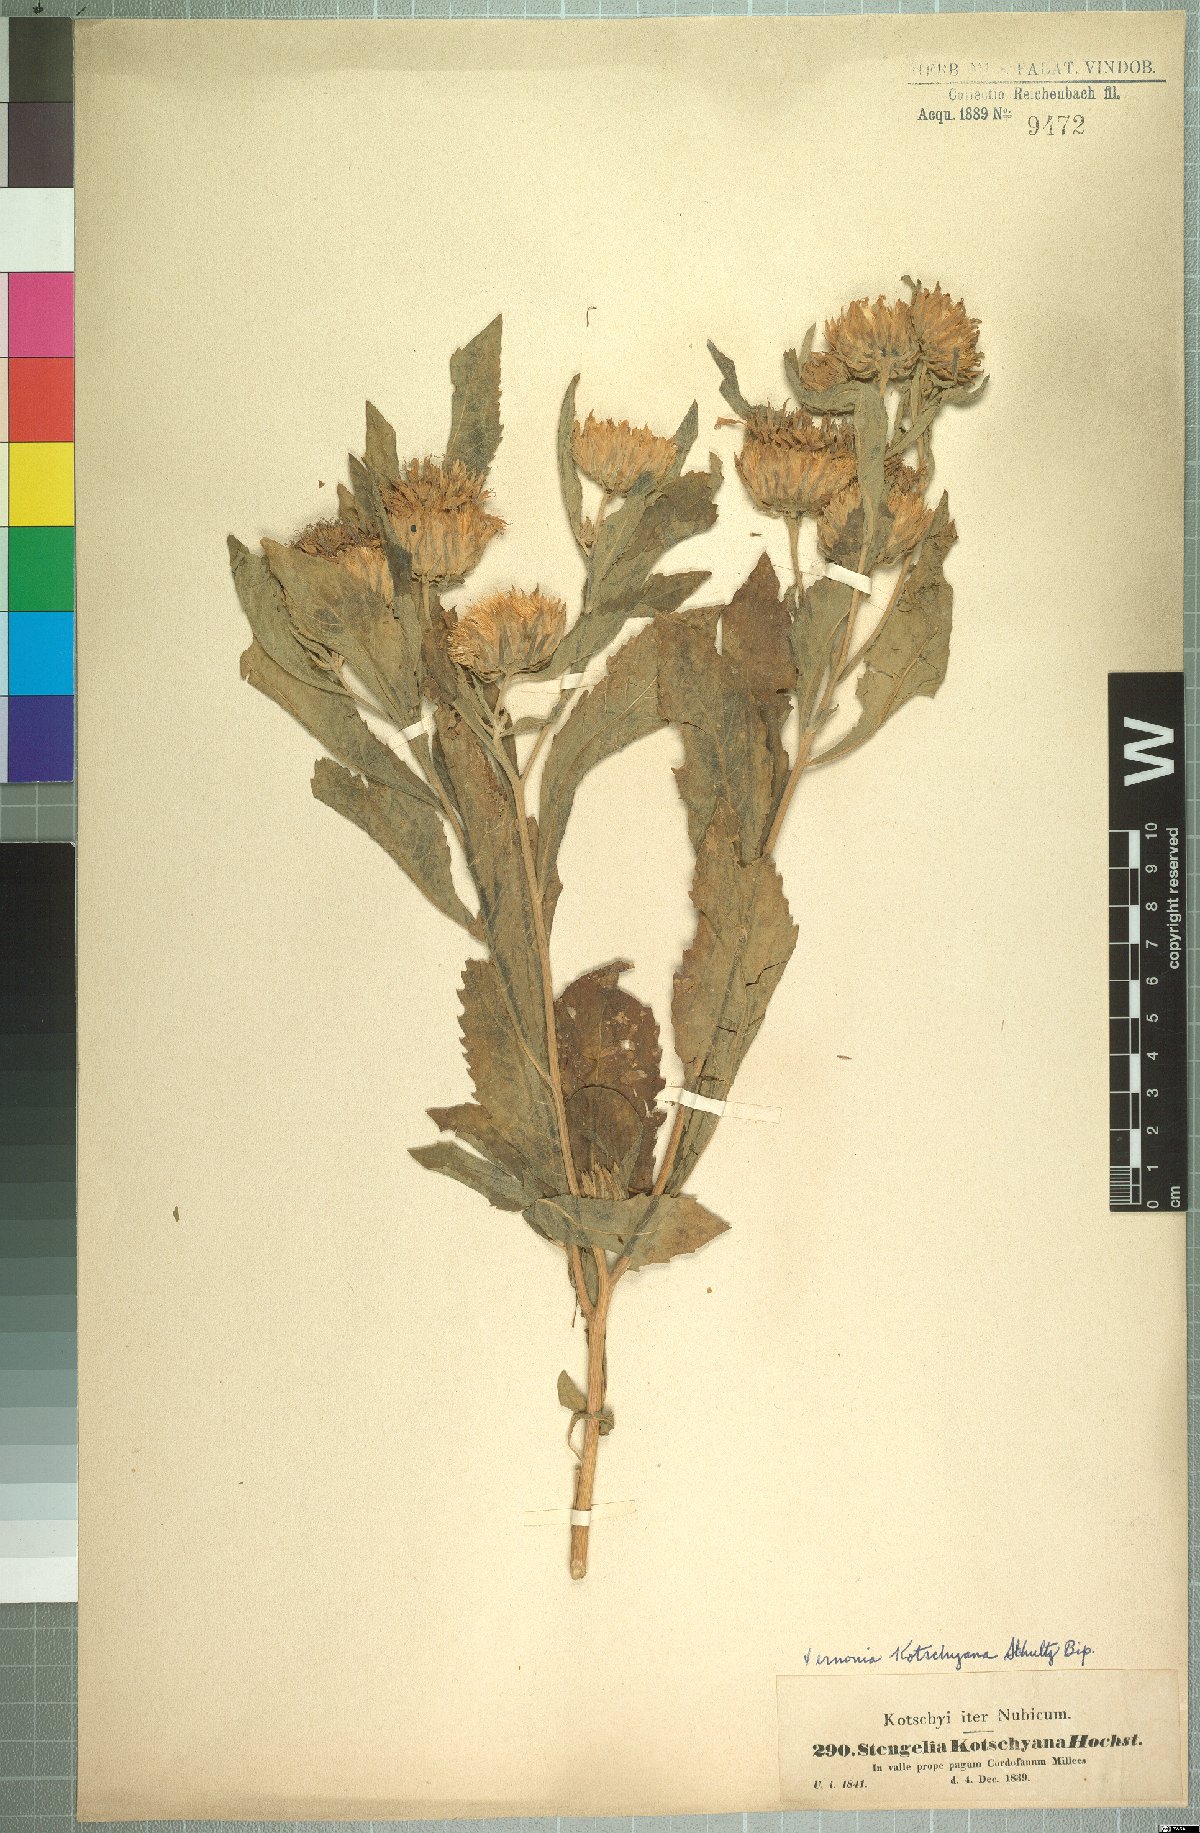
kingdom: Plantae
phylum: Tracheophyta
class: Magnoliopsida
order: Asterales
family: Asteraceae
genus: Baccharoides
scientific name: Baccharoides adoensis
